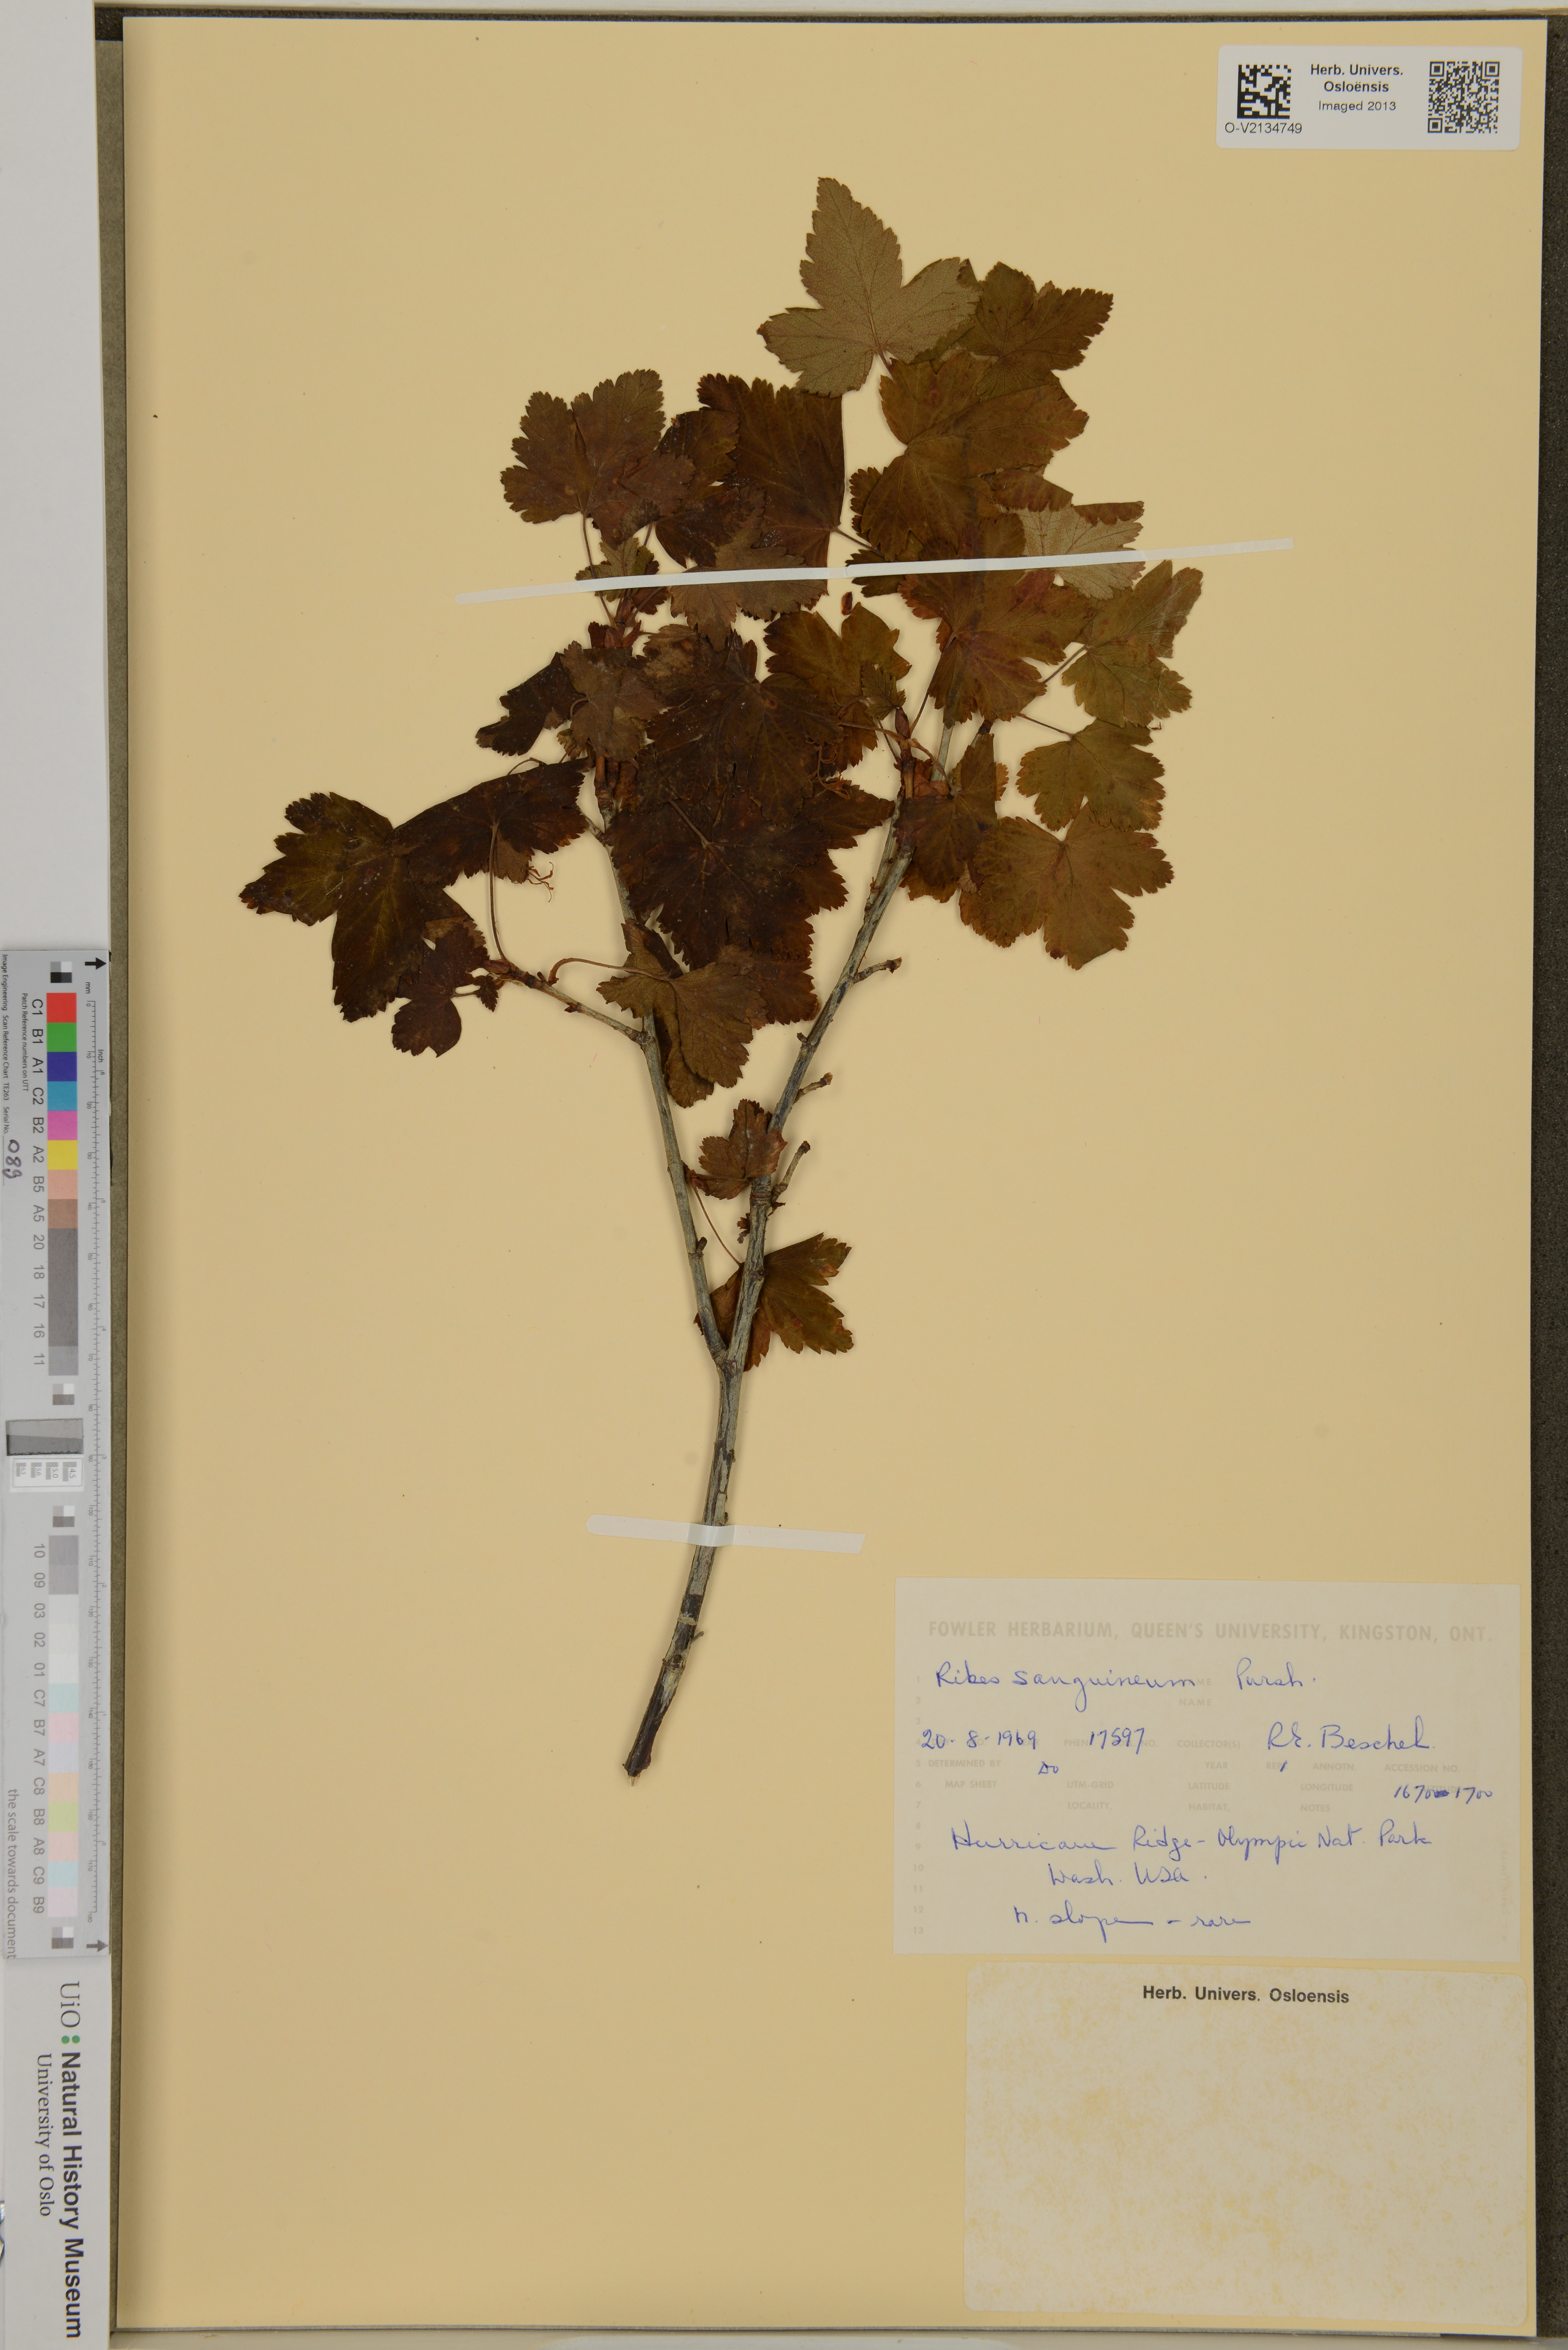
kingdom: Plantae
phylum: Tracheophyta
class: Magnoliopsida
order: Saxifragales
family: Grossulariaceae
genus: Ribes
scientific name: Ribes sanguineum
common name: Flowering currant
